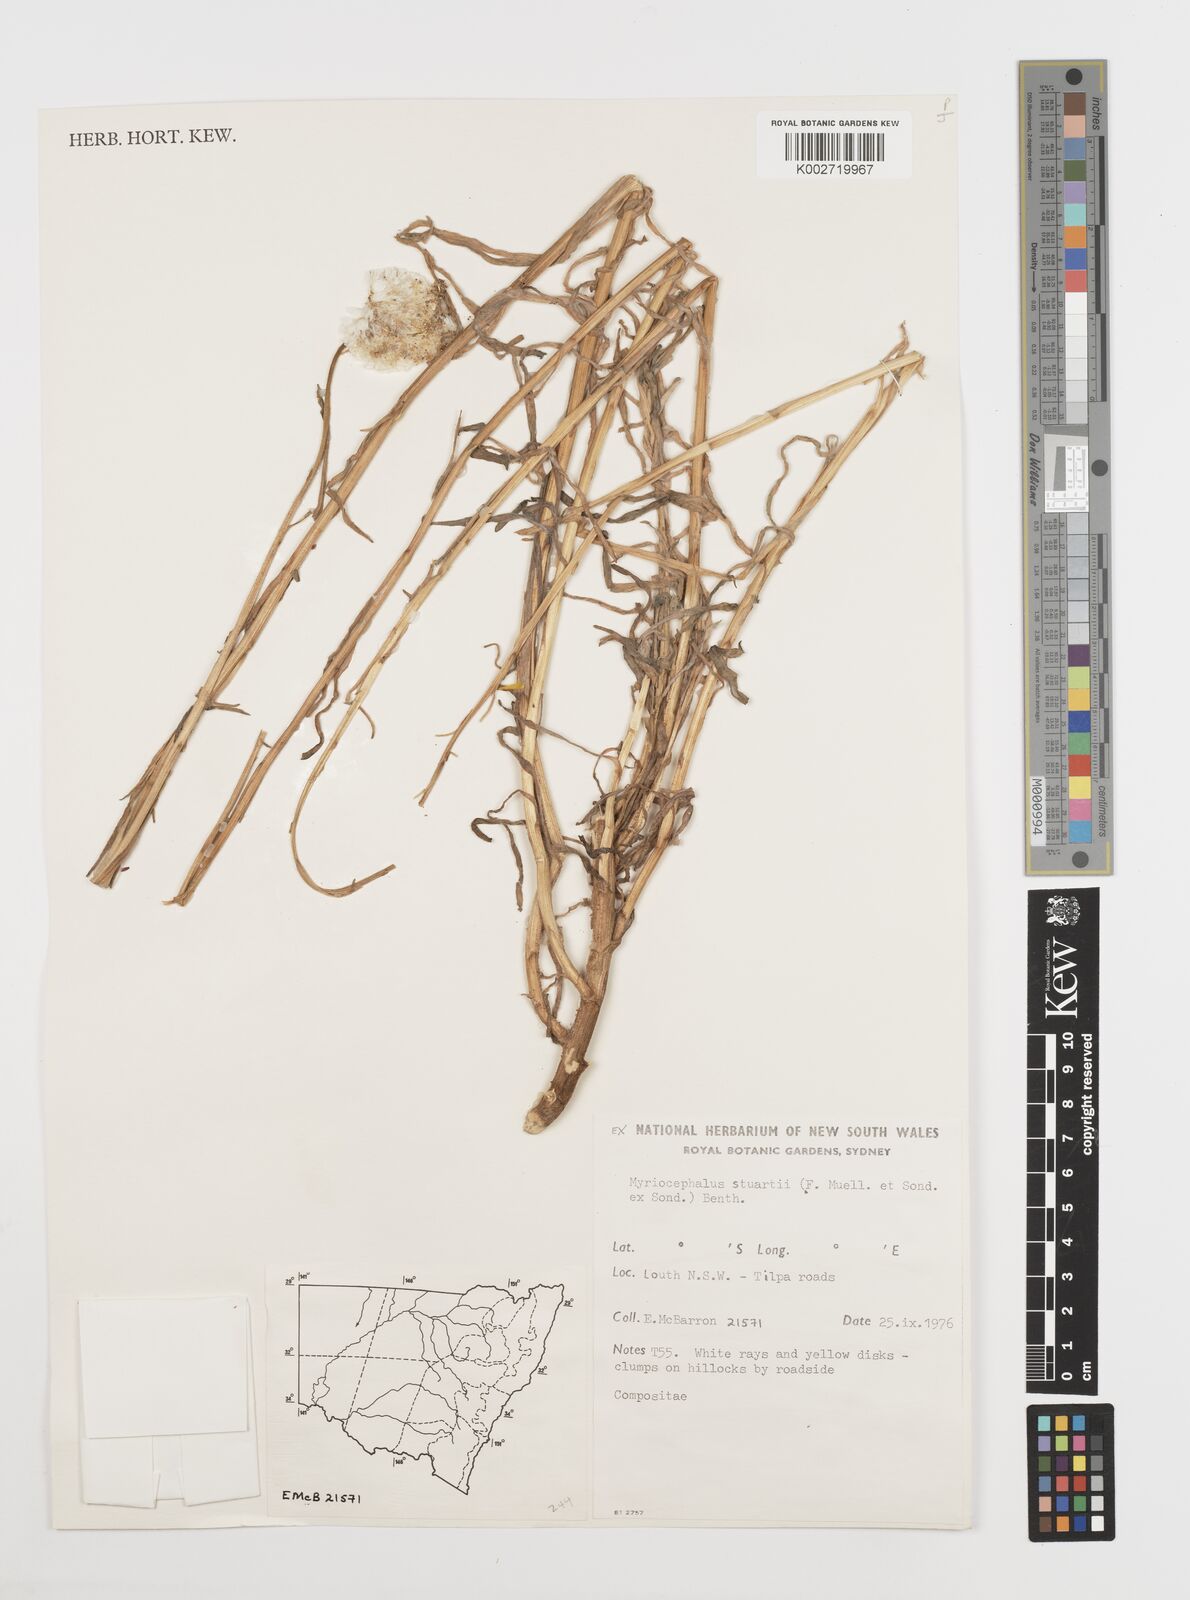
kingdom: Plantae
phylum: Tracheophyta
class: Magnoliopsida
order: Asterales
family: Asteraceae
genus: Polycalymma
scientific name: Polycalymma stuartii
